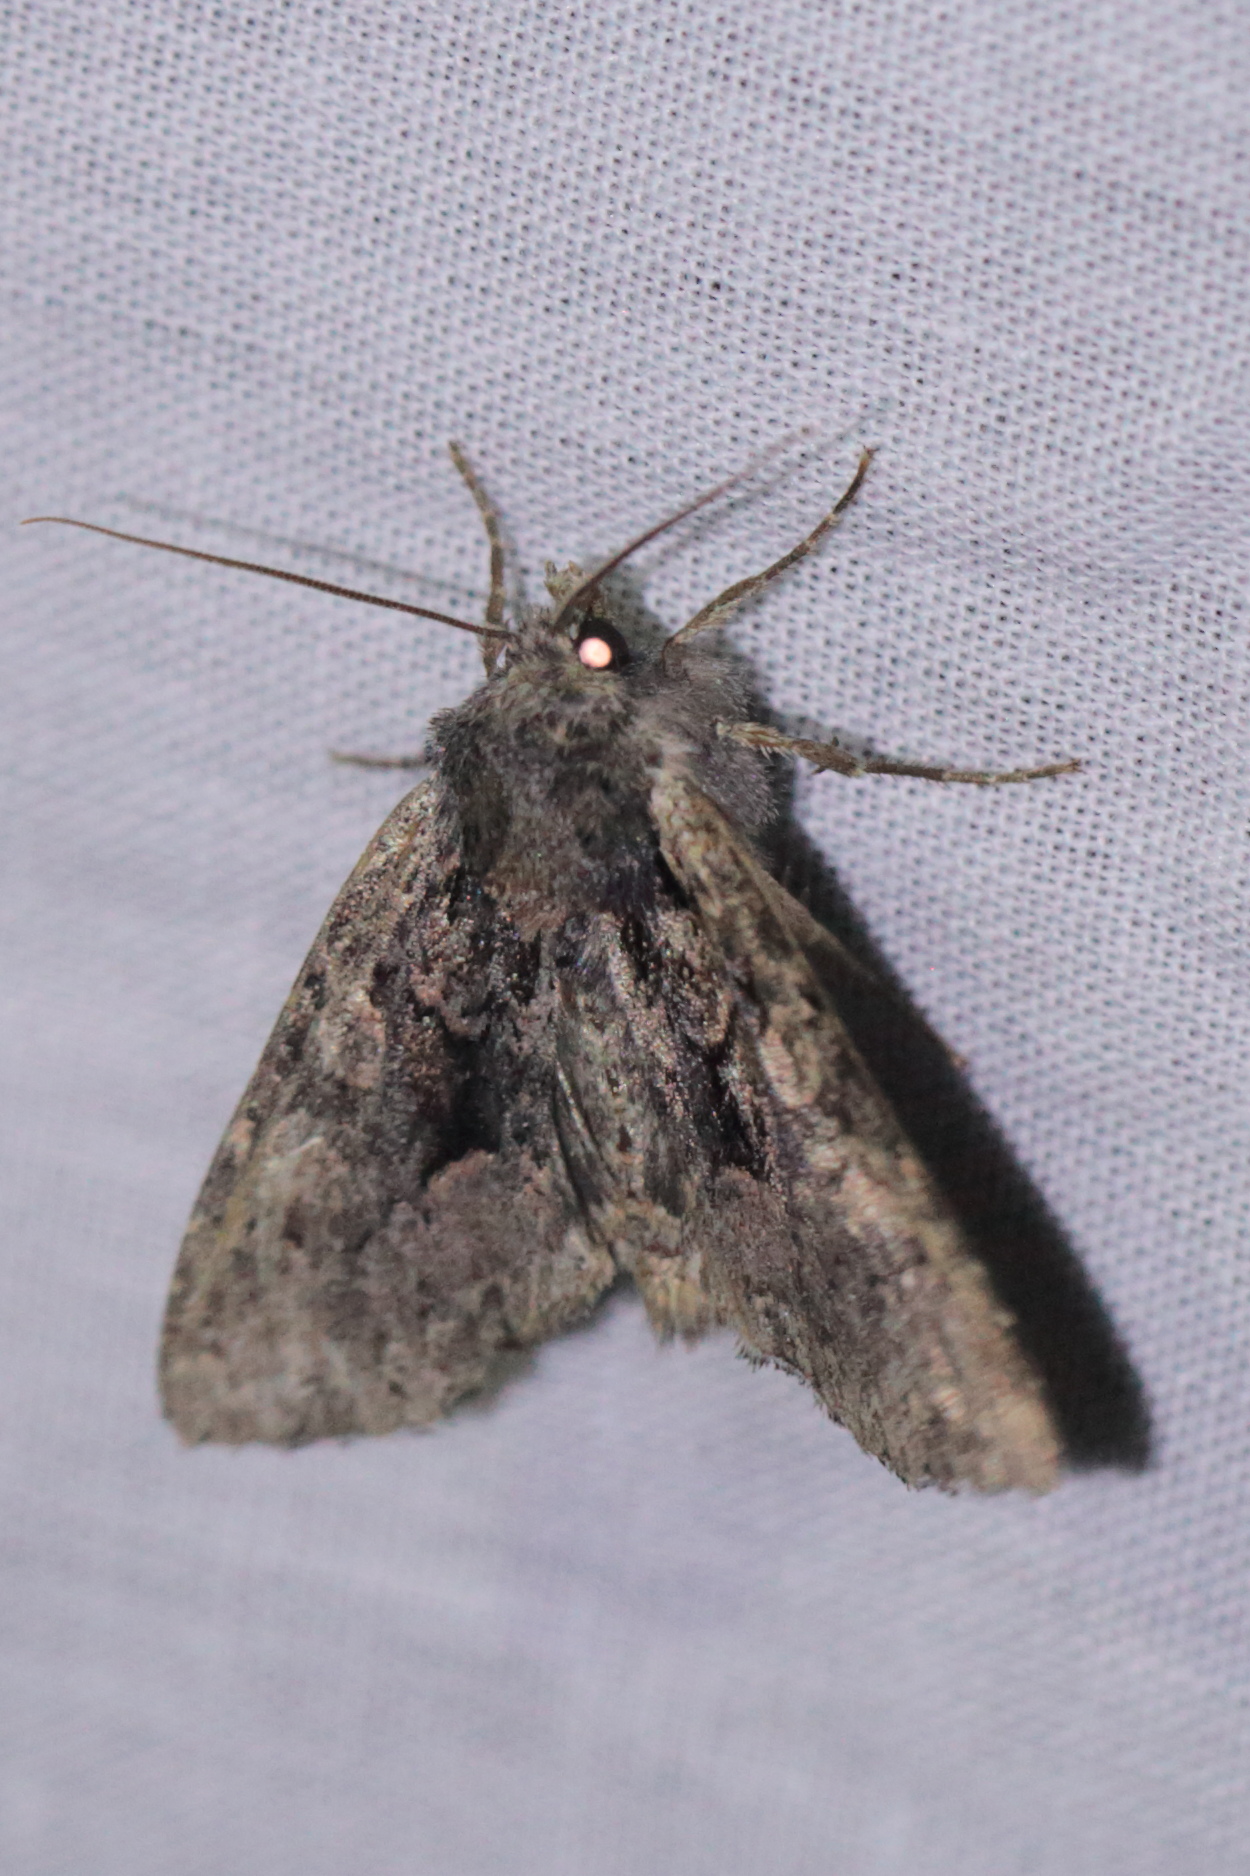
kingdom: Animalia
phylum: Arthropoda
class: Insecta
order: Lepidoptera
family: Noctuidae
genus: Mniotype
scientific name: Mniotype satura
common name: Beautiful arches
